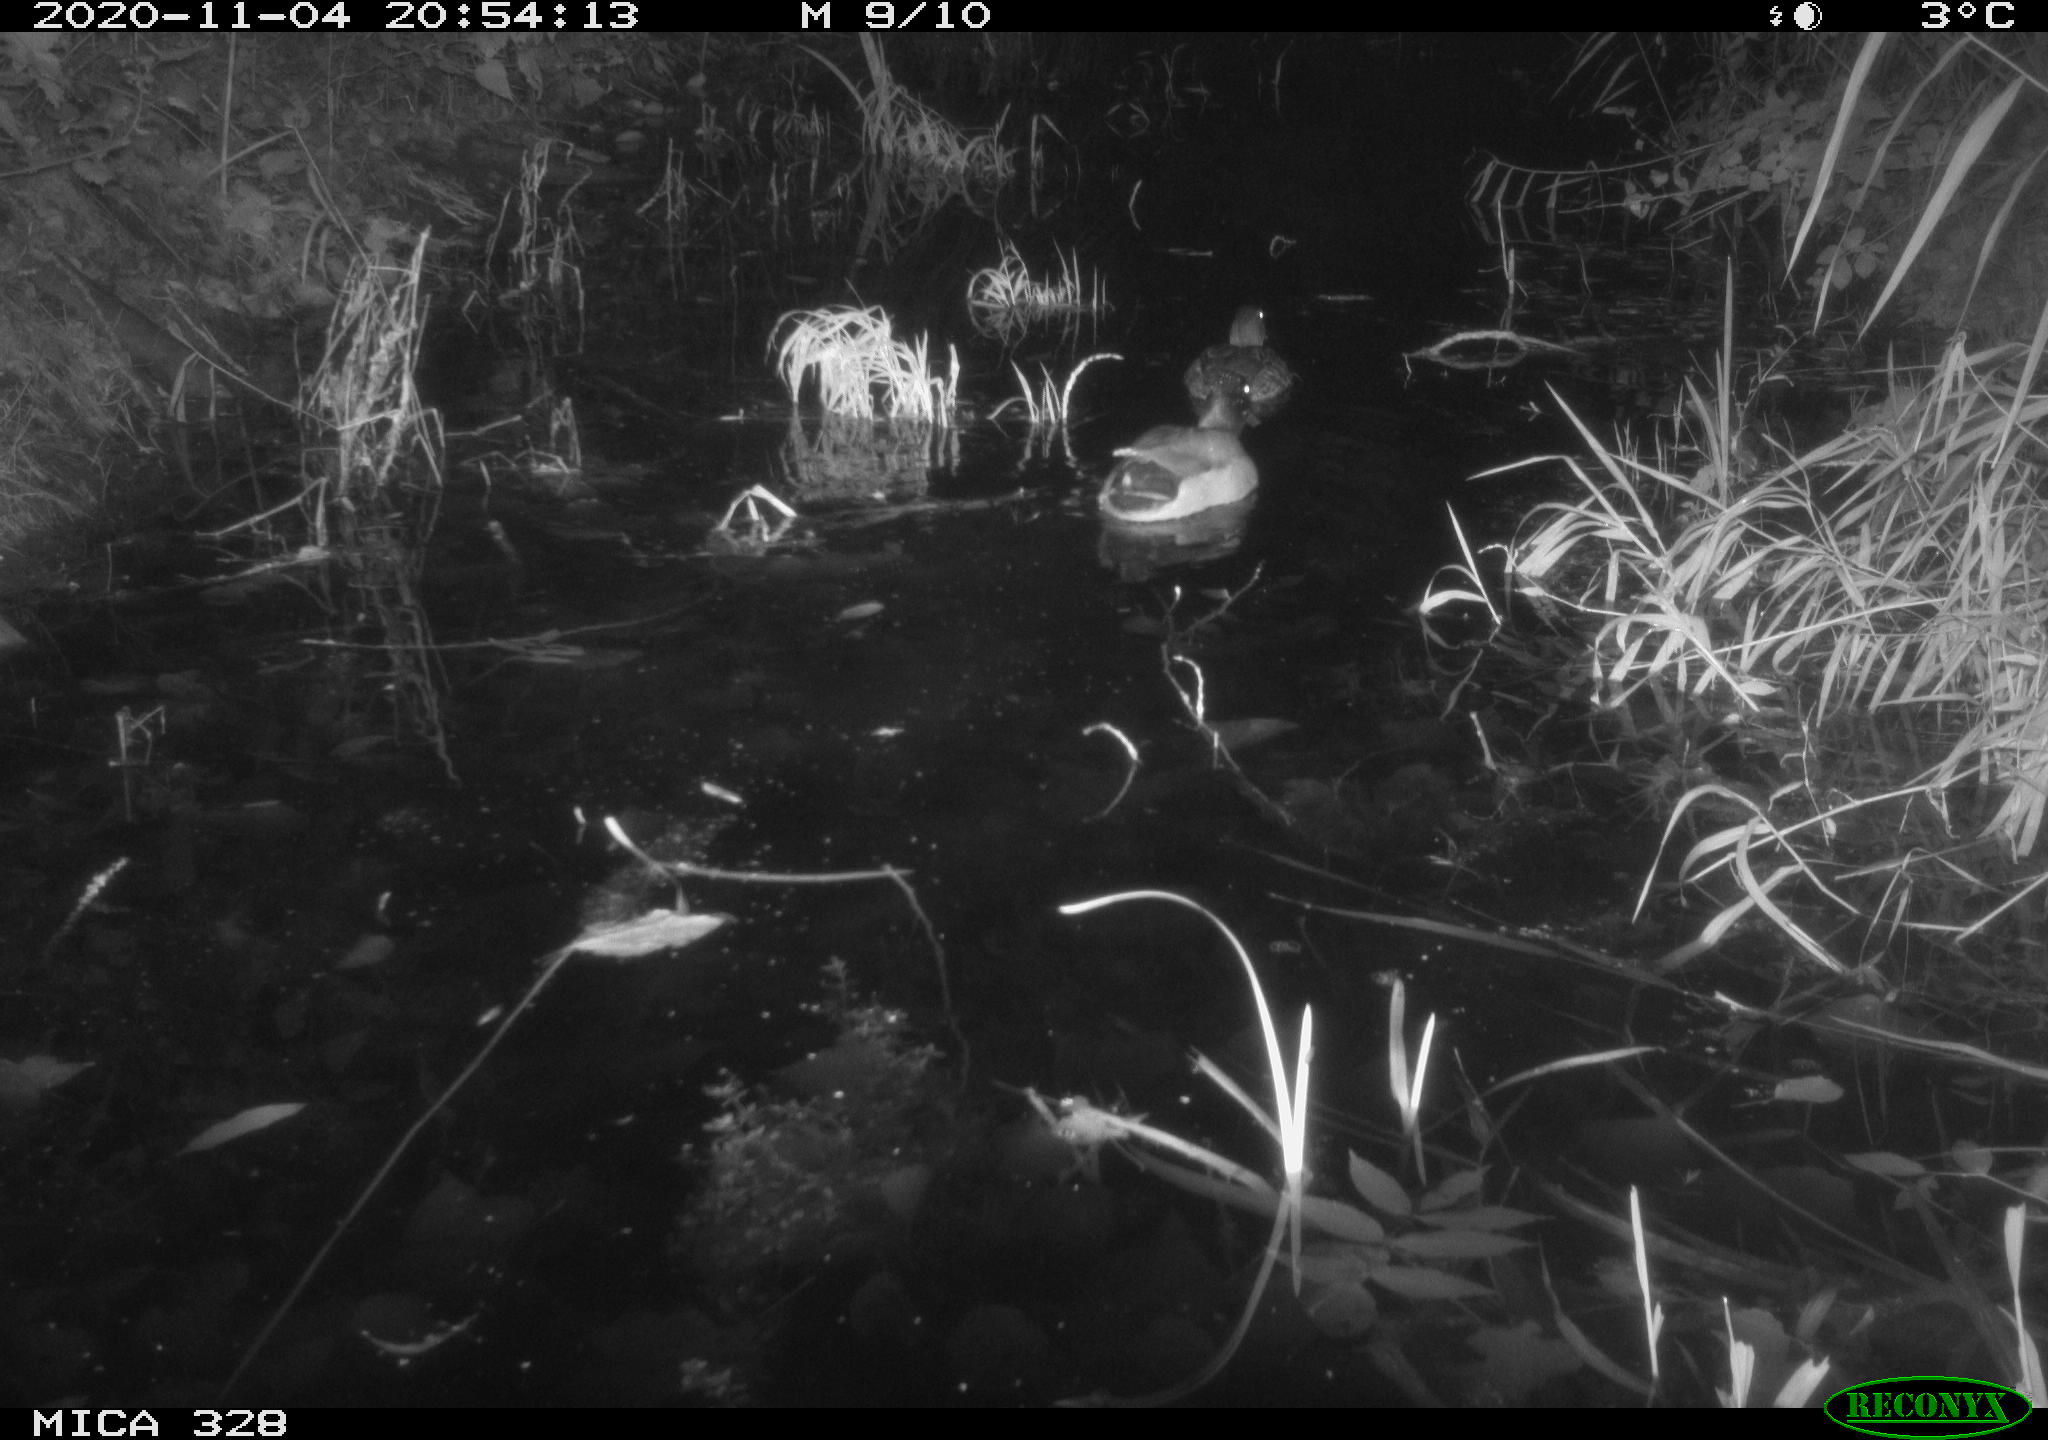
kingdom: Animalia
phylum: Chordata
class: Aves
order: Anseriformes
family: Anatidae
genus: Anas
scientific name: Anas platyrhynchos
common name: Mallard
